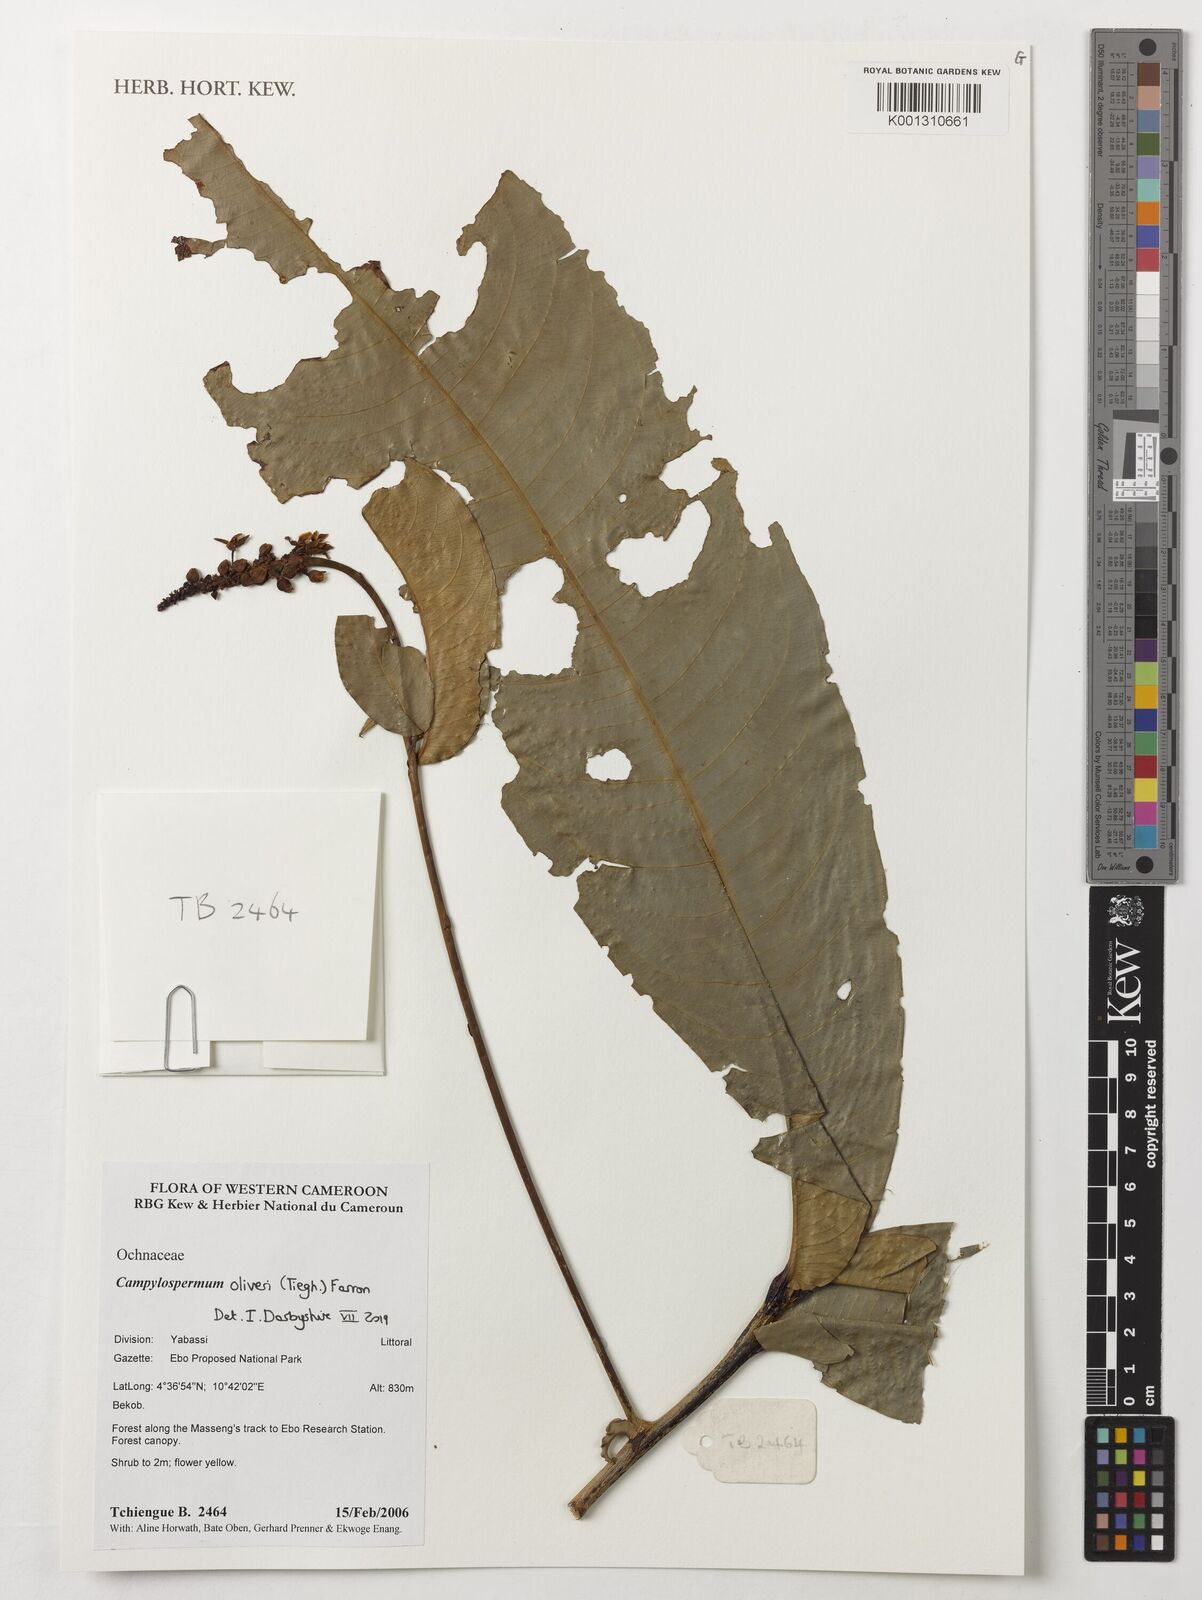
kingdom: Plantae
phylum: Tracheophyta
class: Magnoliopsida
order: Malpighiales
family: Ochnaceae
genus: Campylospermum
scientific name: Campylospermum oliveri
